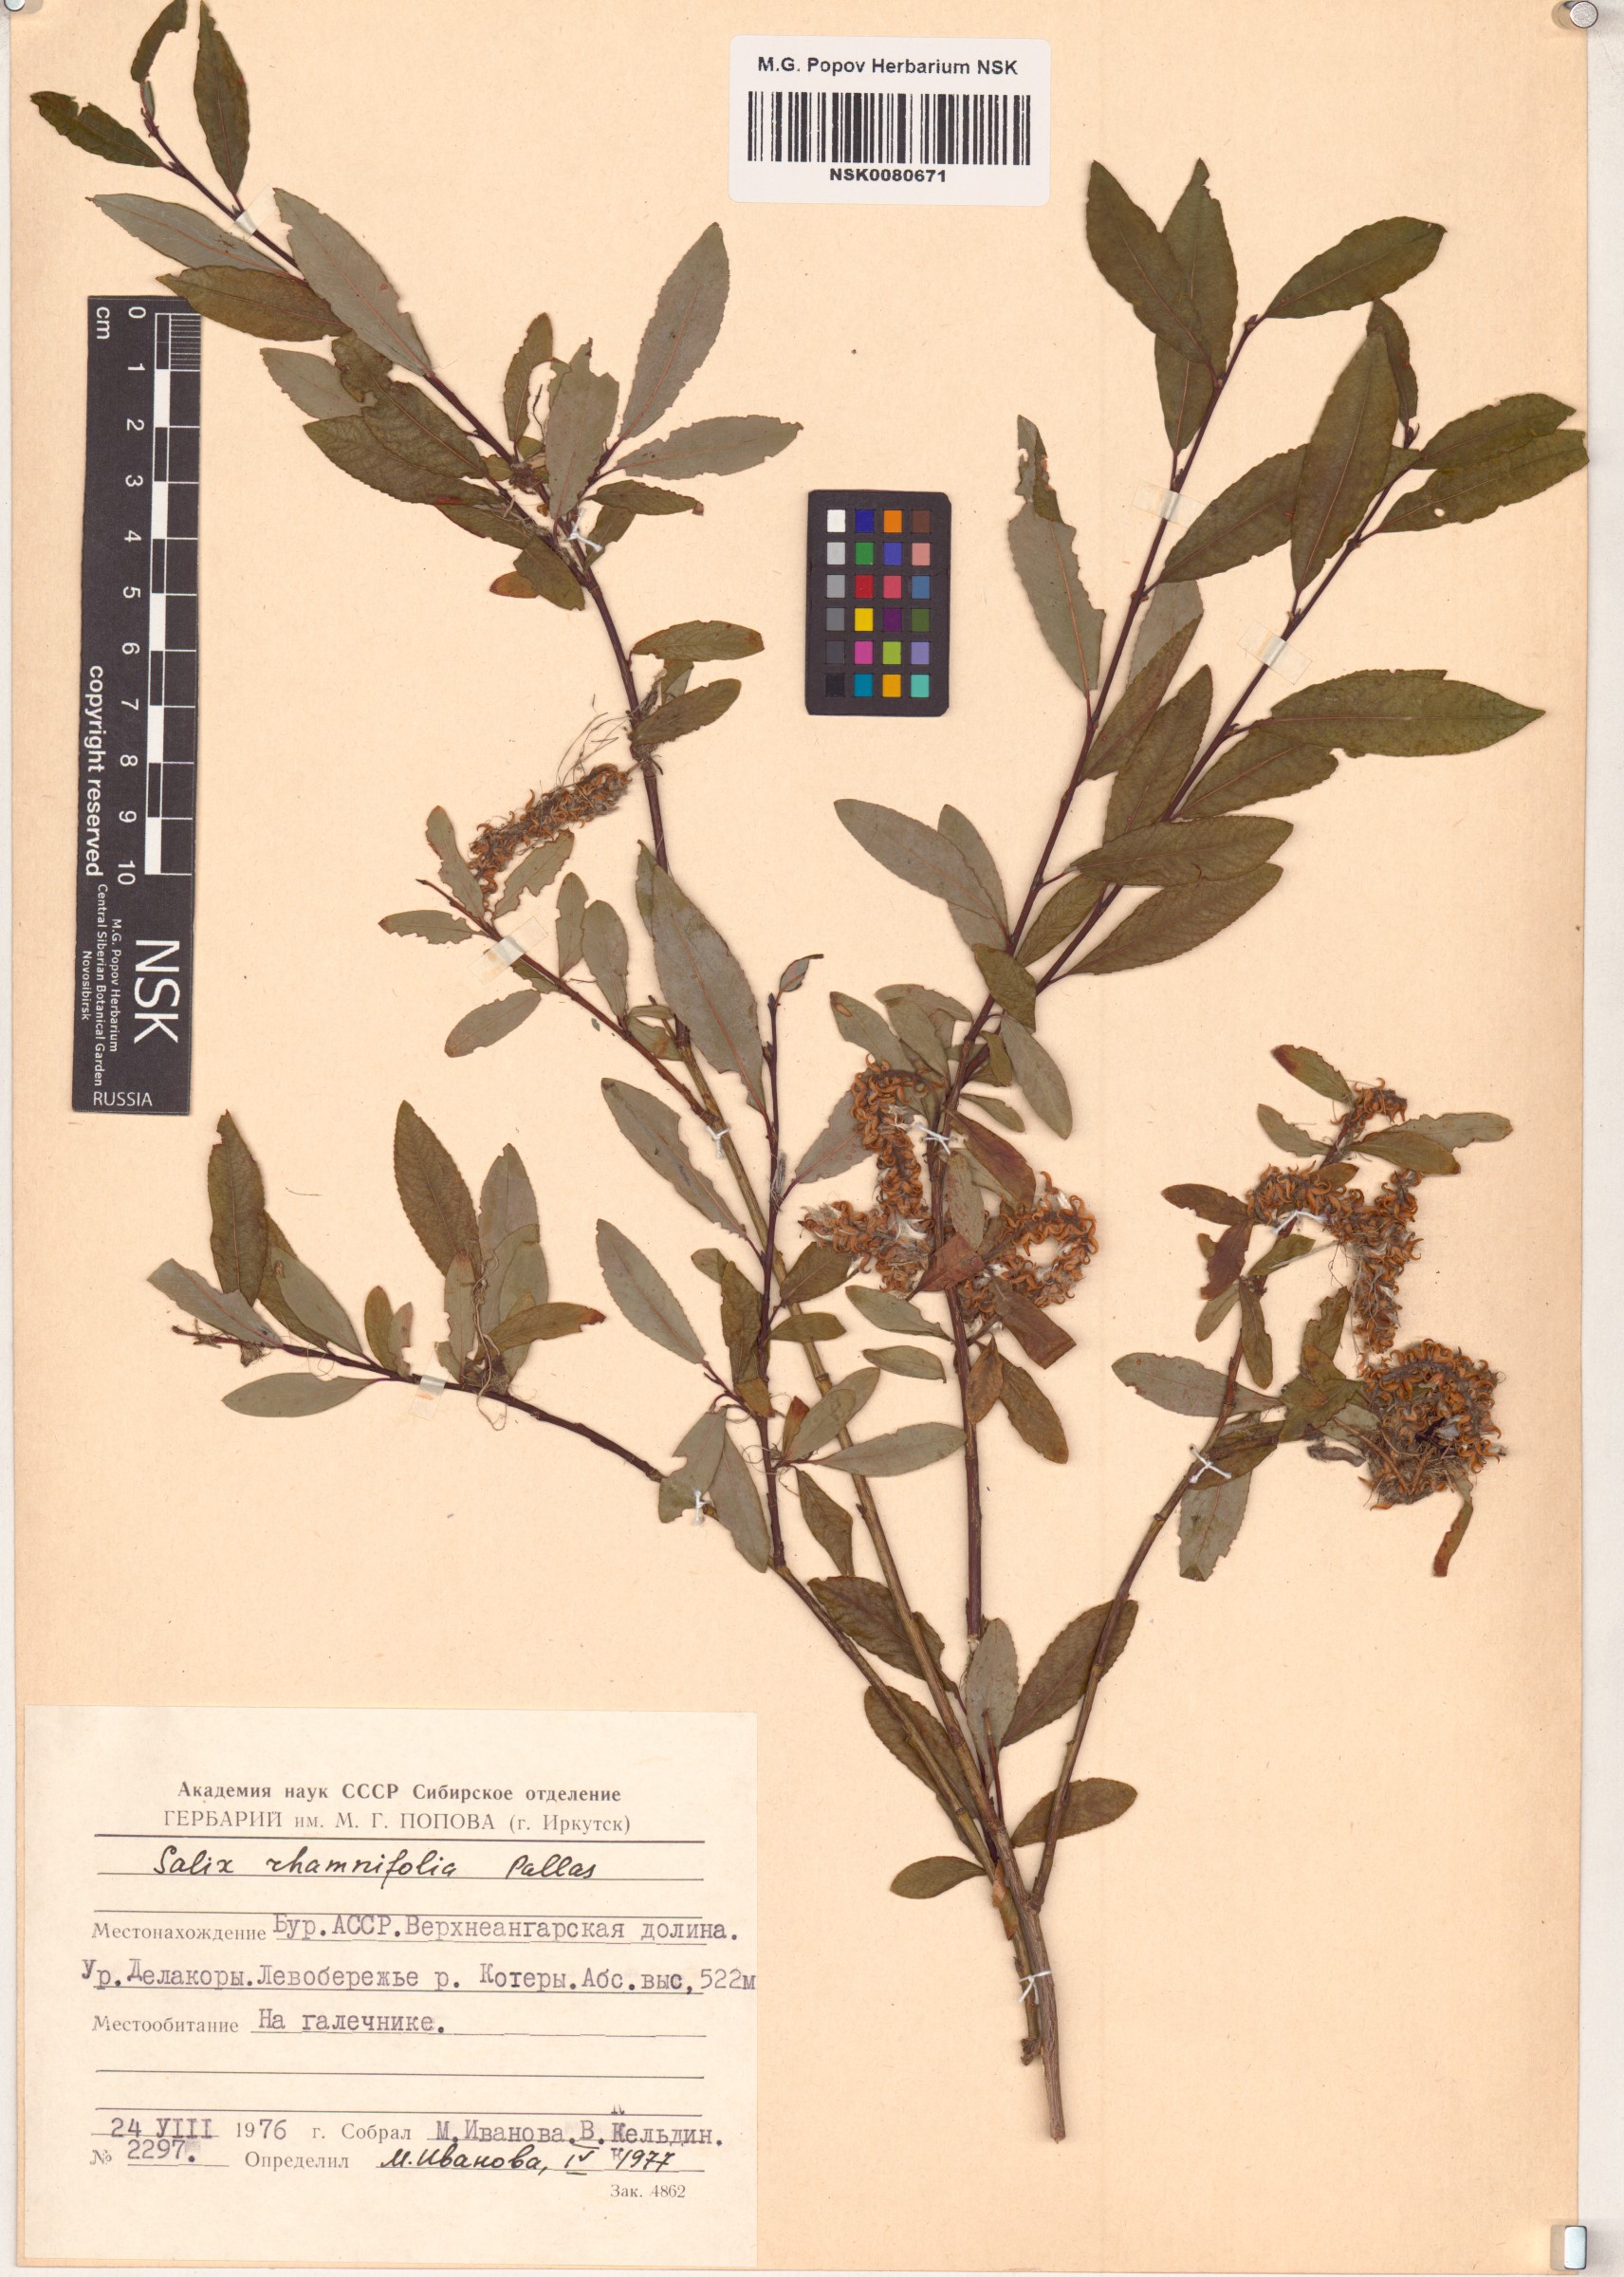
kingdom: Plantae
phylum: Tracheophyta
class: Magnoliopsida
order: Malpighiales
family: Salicaceae
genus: Salix
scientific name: Salix rhamnifolia
